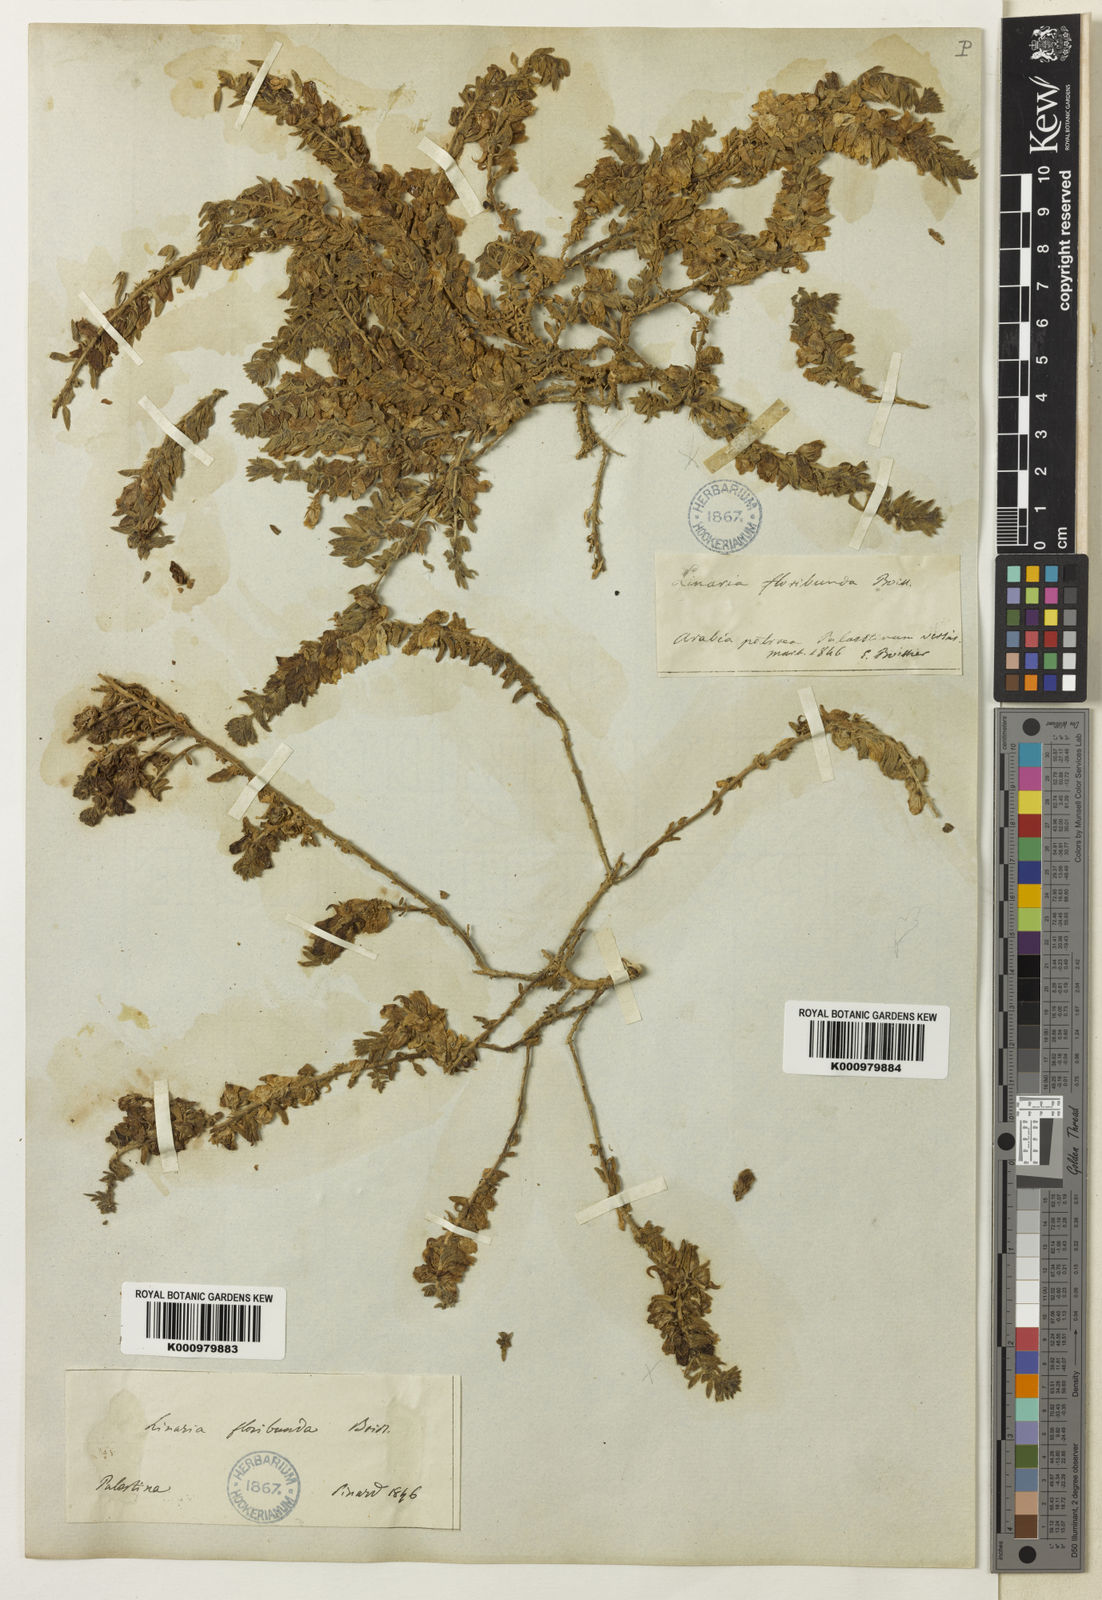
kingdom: Plantae
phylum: Tracheophyta
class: Magnoliopsida
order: Lamiales
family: Plantaginaceae
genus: Kickxia
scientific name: Kickxia
